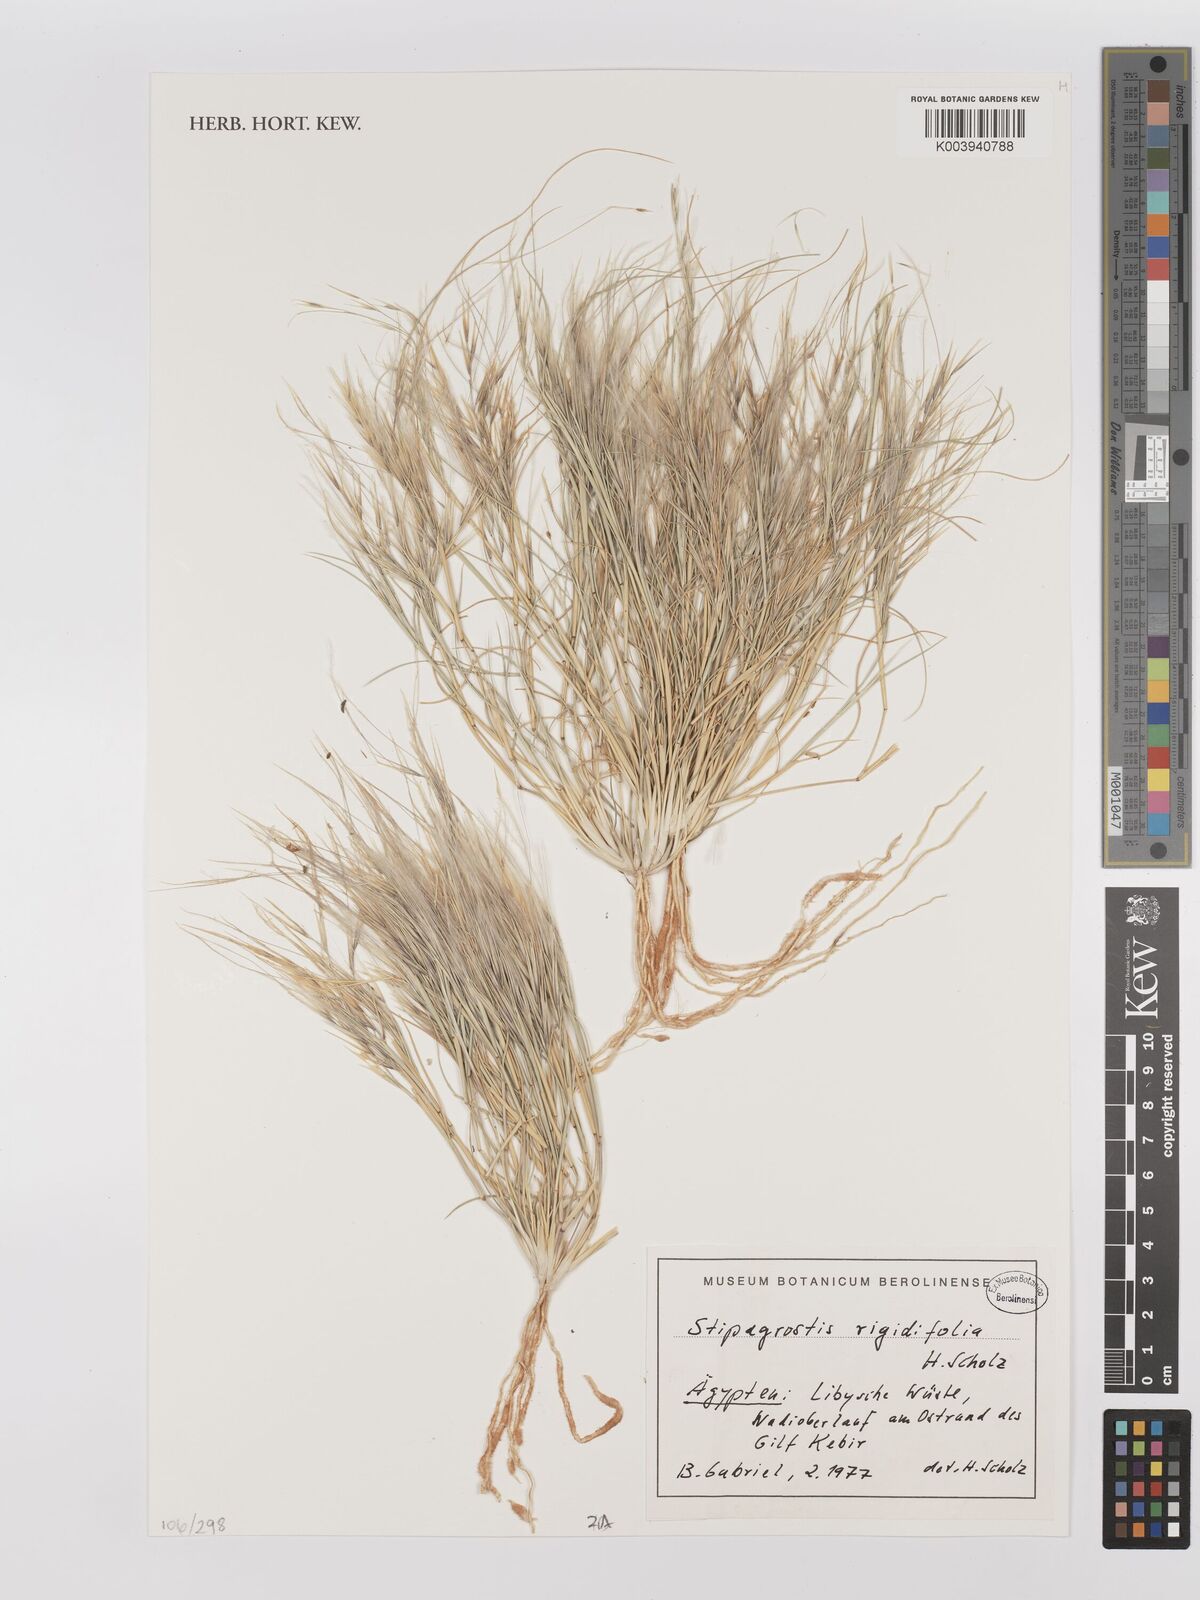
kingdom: Plantae
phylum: Tracheophyta
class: Liliopsida
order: Poales
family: Poaceae
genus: Stipagrostis
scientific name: Stipagrostis rigidifolia
